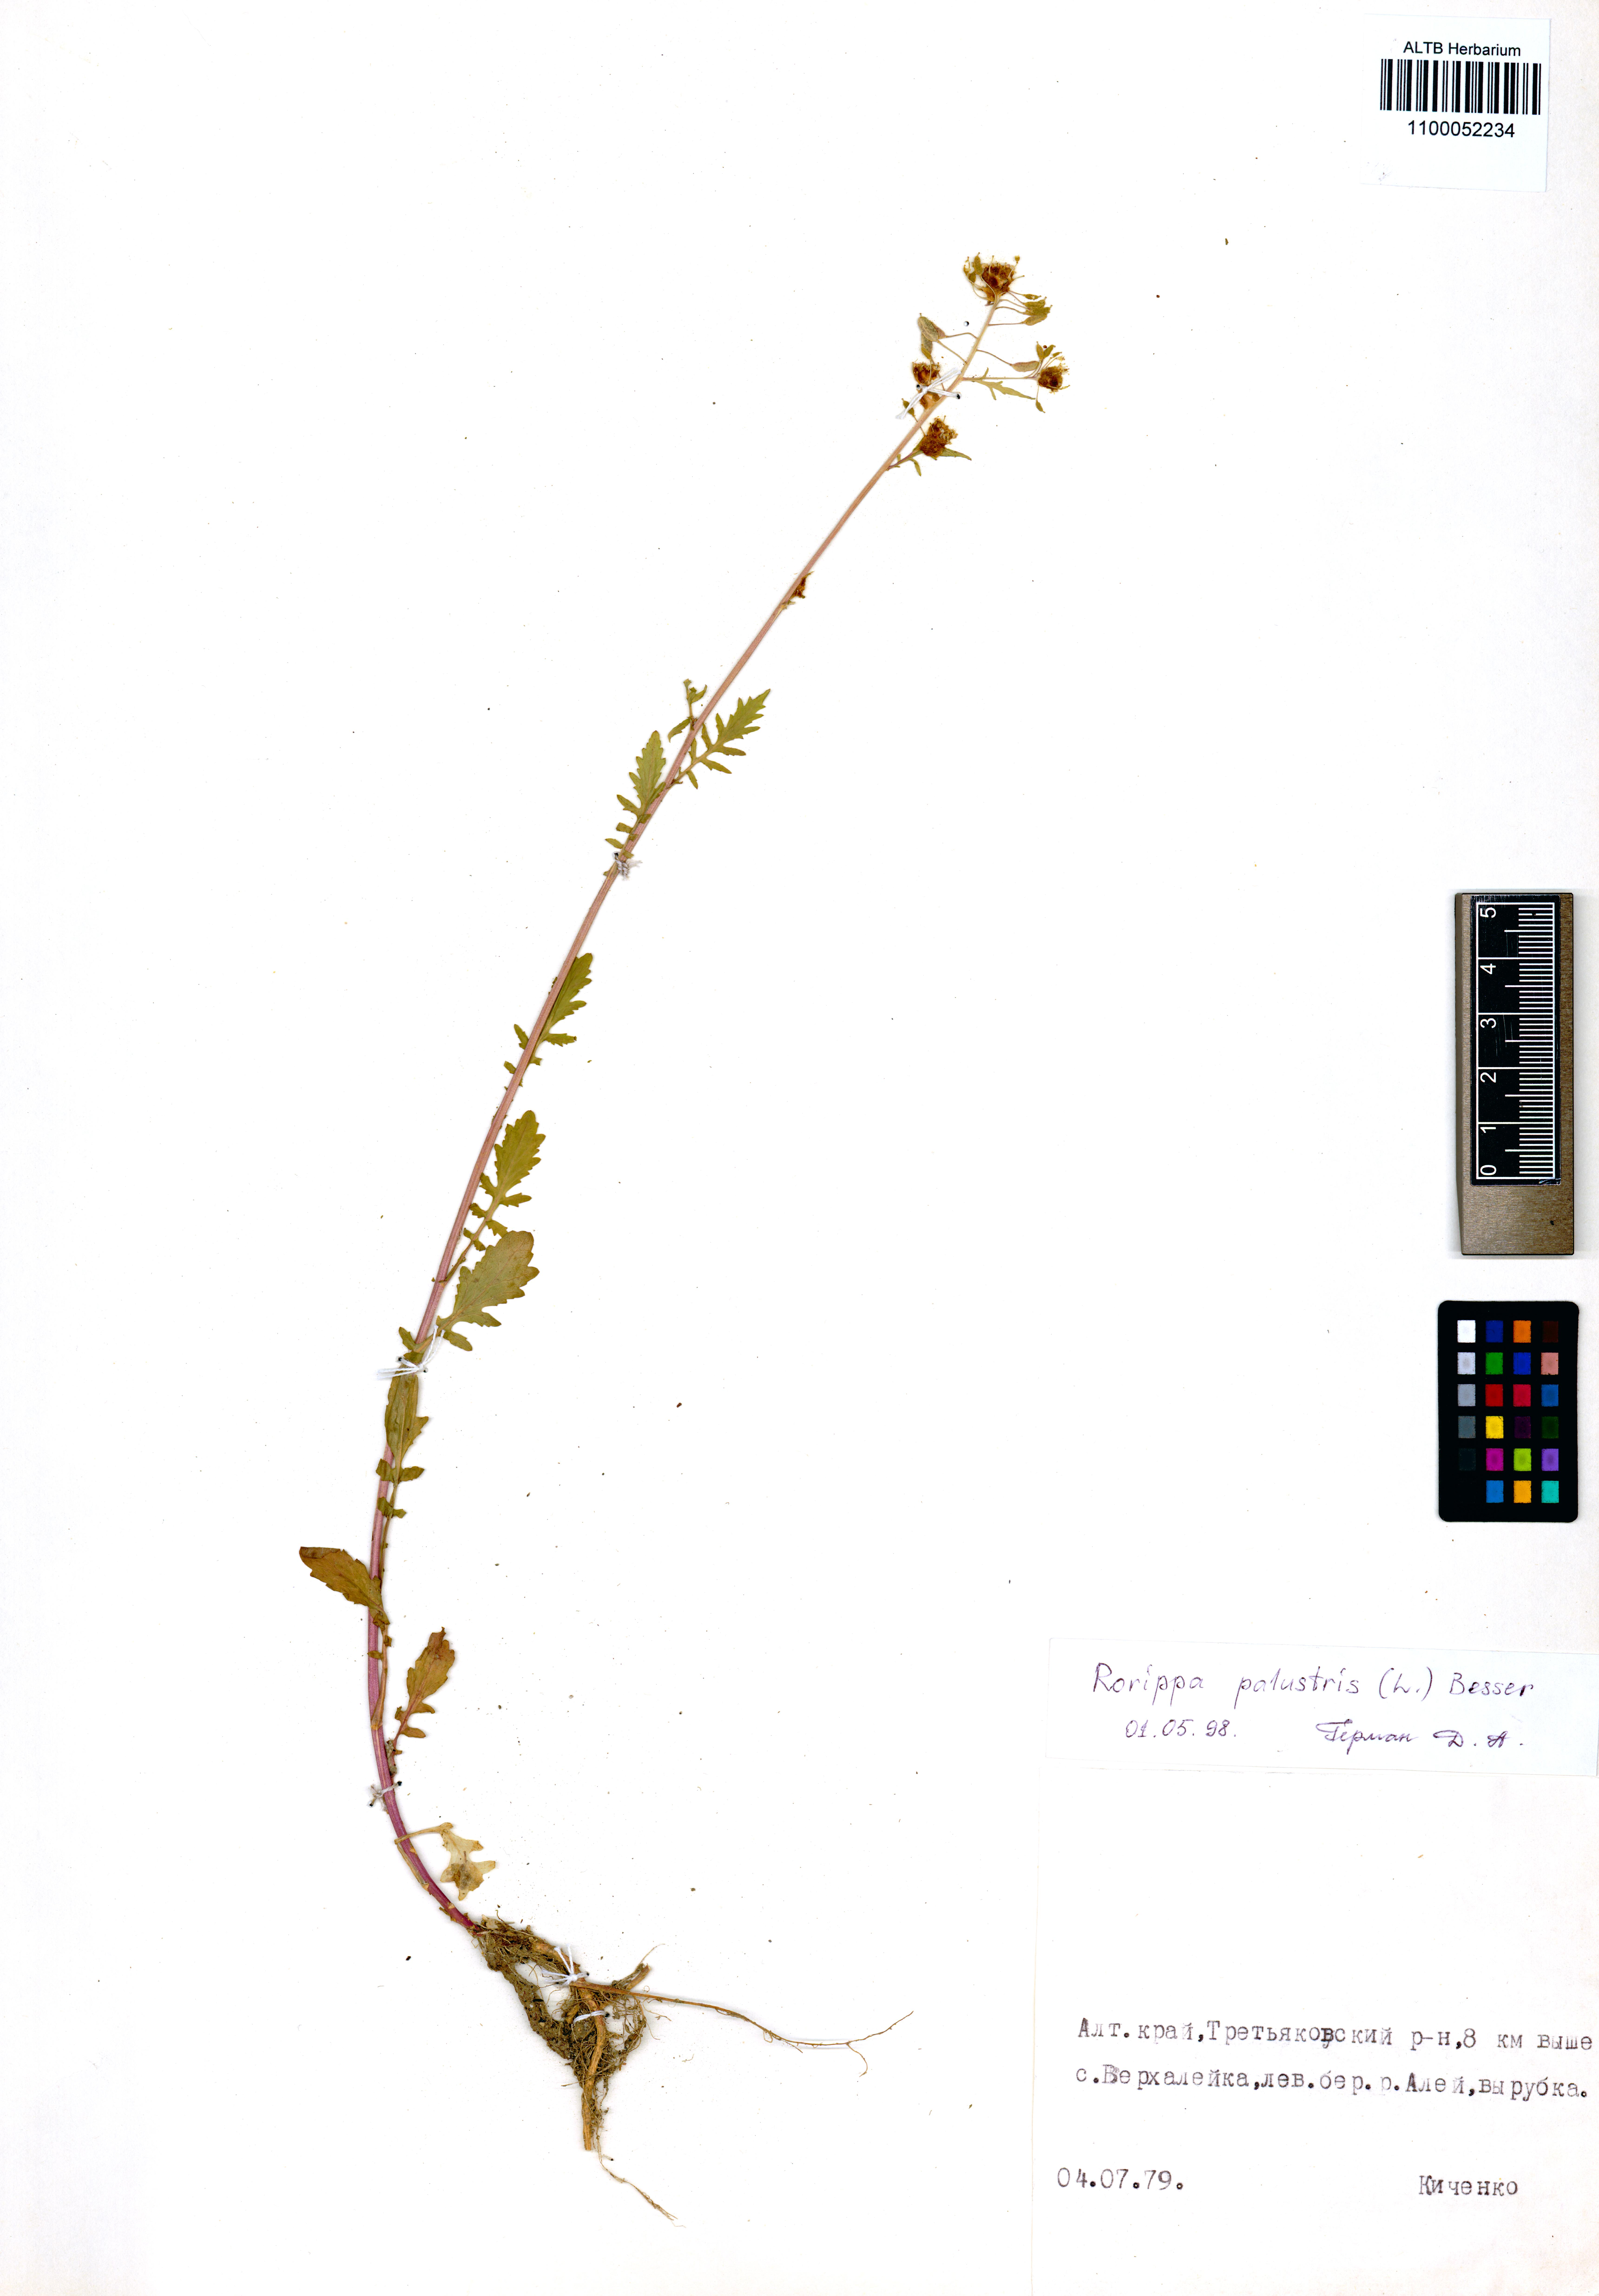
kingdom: Plantae
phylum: Tracheophyta
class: Magnoliopsida
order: Brassicales
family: Brassicaceae
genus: Rorippa
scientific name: Rorippa palustris
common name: Marsh yellow-cress
